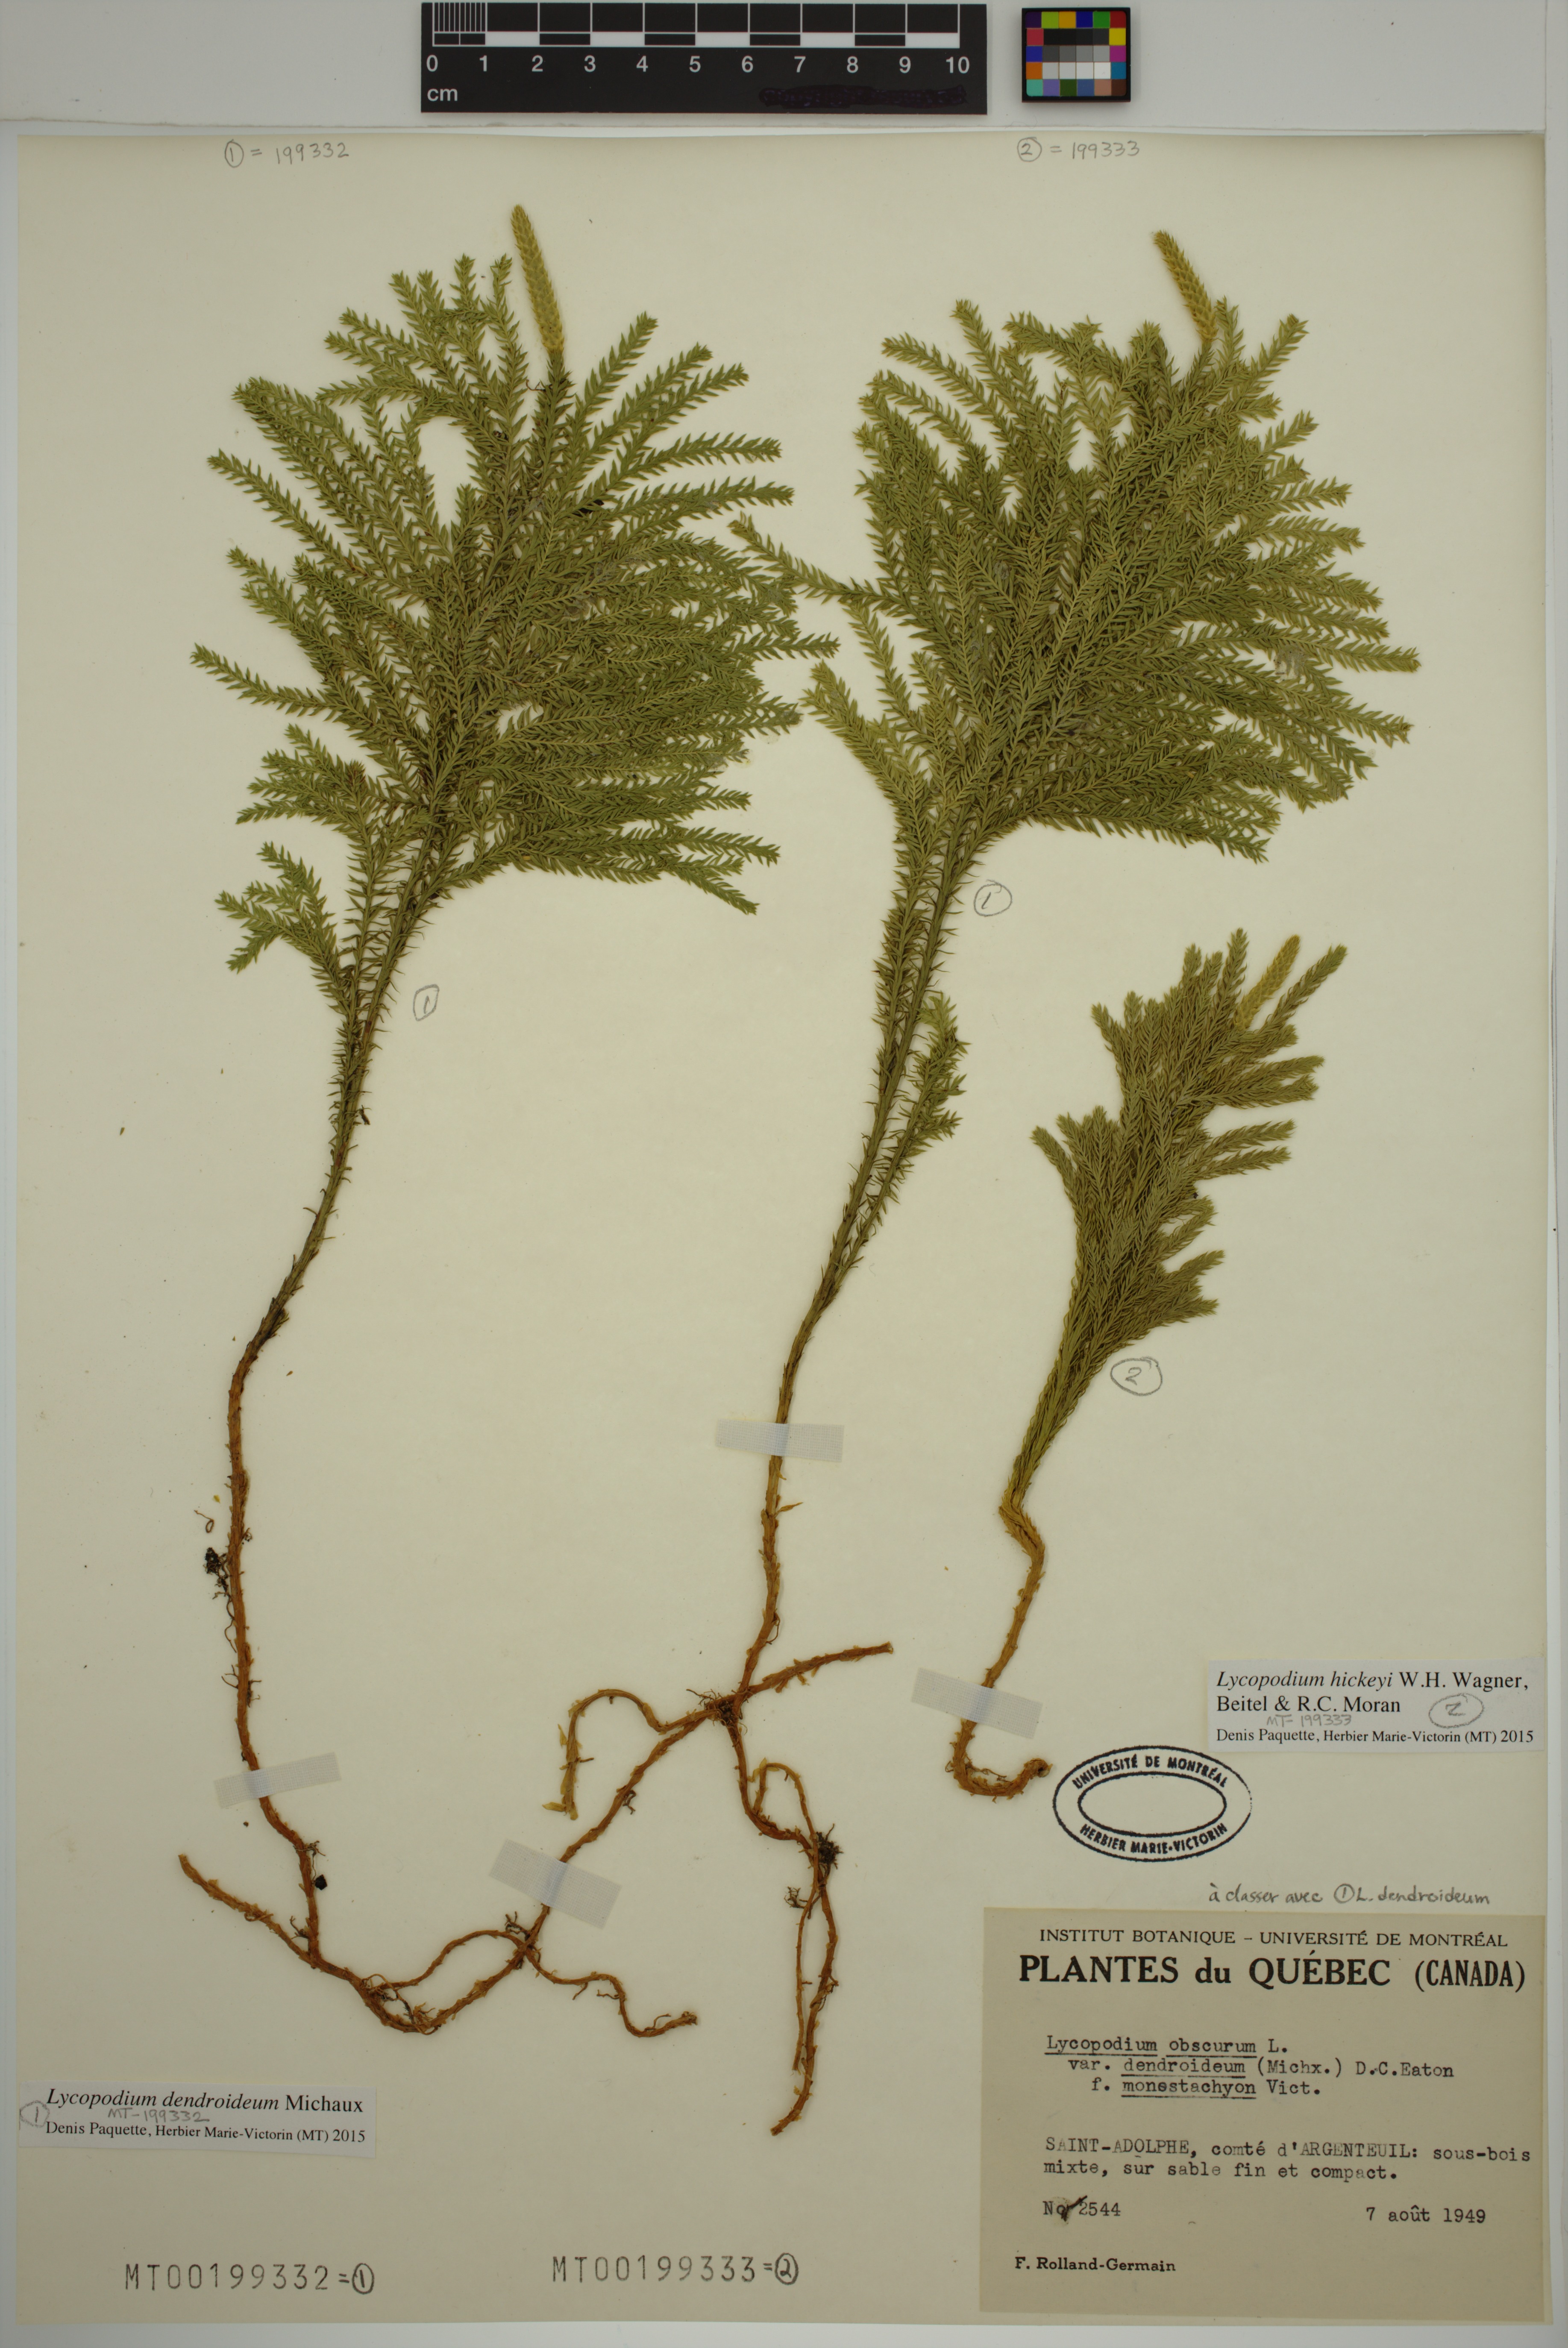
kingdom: Plantae
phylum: Tracheophyta
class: Lycopodiopsida
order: Lycopodiales
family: Lycopodiaceae
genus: Dendrolycopodium
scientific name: Dendrolycopodium dendroideum
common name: Northern tree-clubmoss
